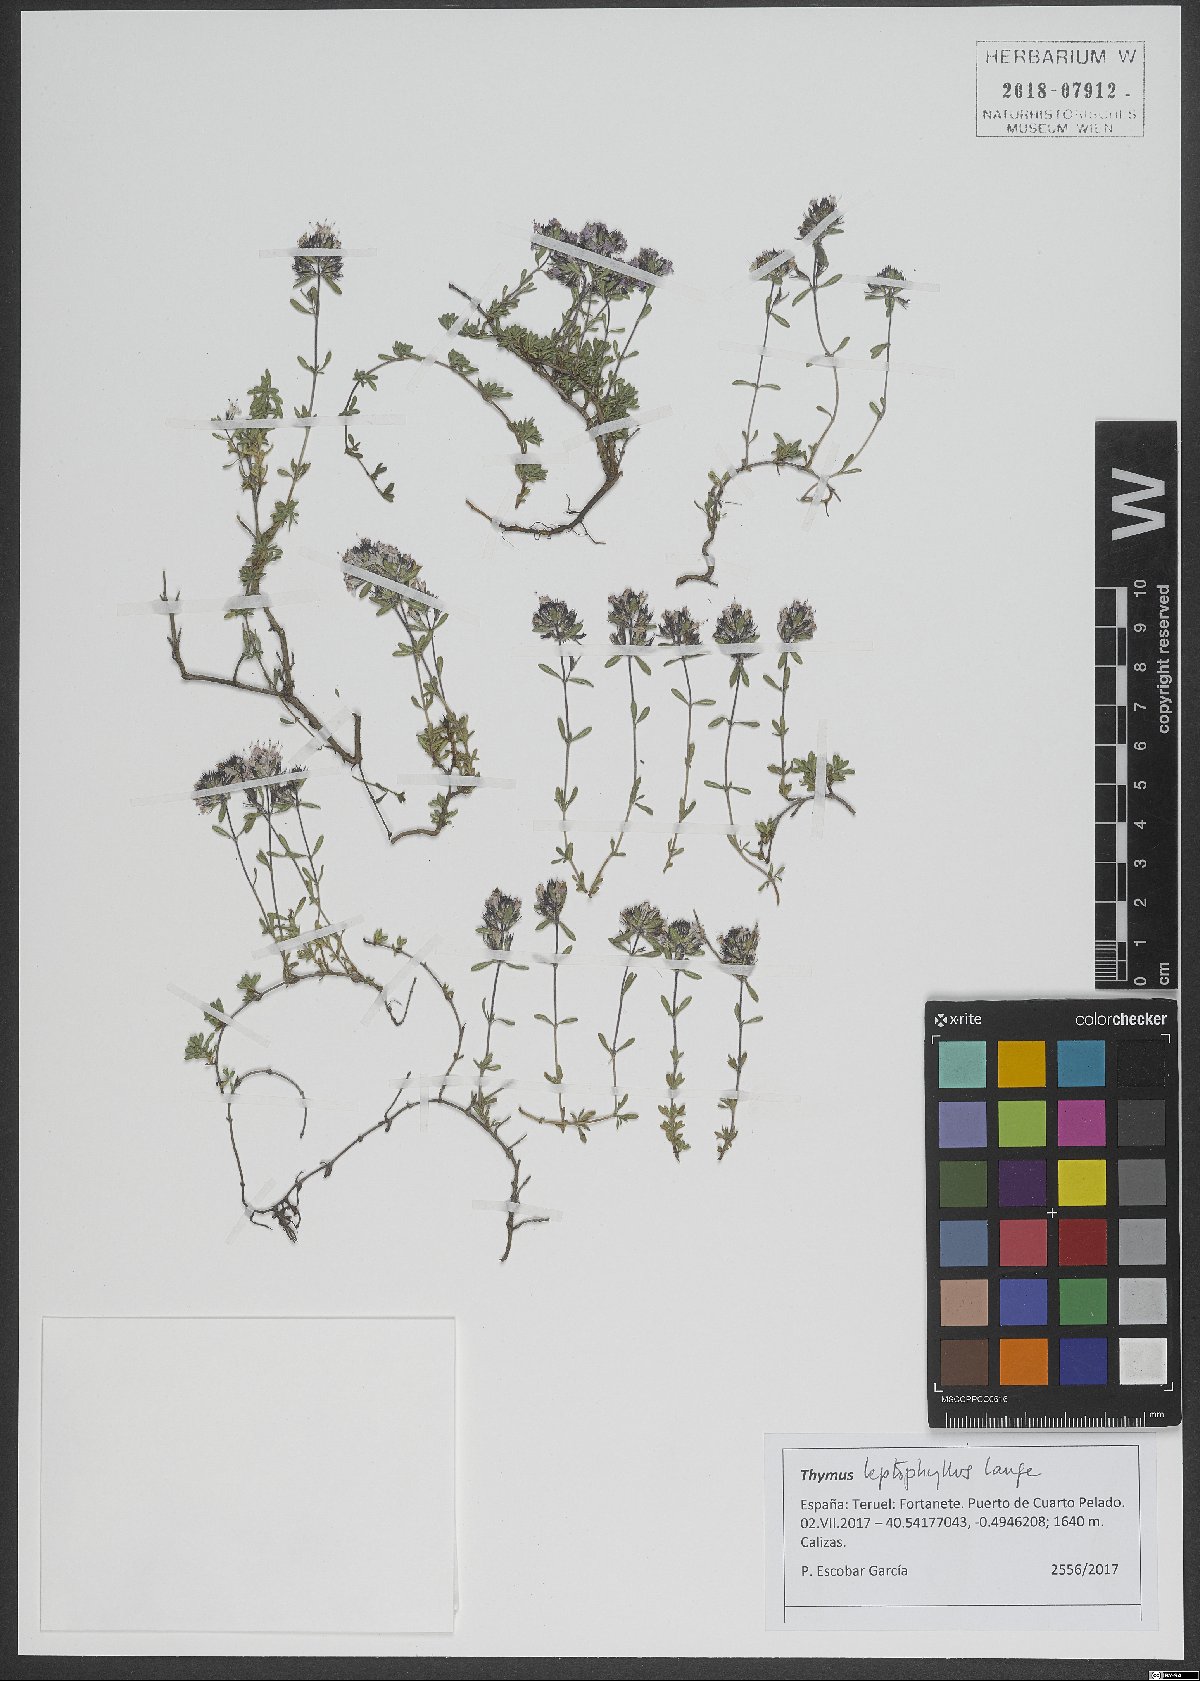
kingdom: Plantae
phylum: Tracheophyta
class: Magnoliopsida
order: Lamiales
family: Lamiaceae
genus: Thymus
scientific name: Thymus leptophyllus
